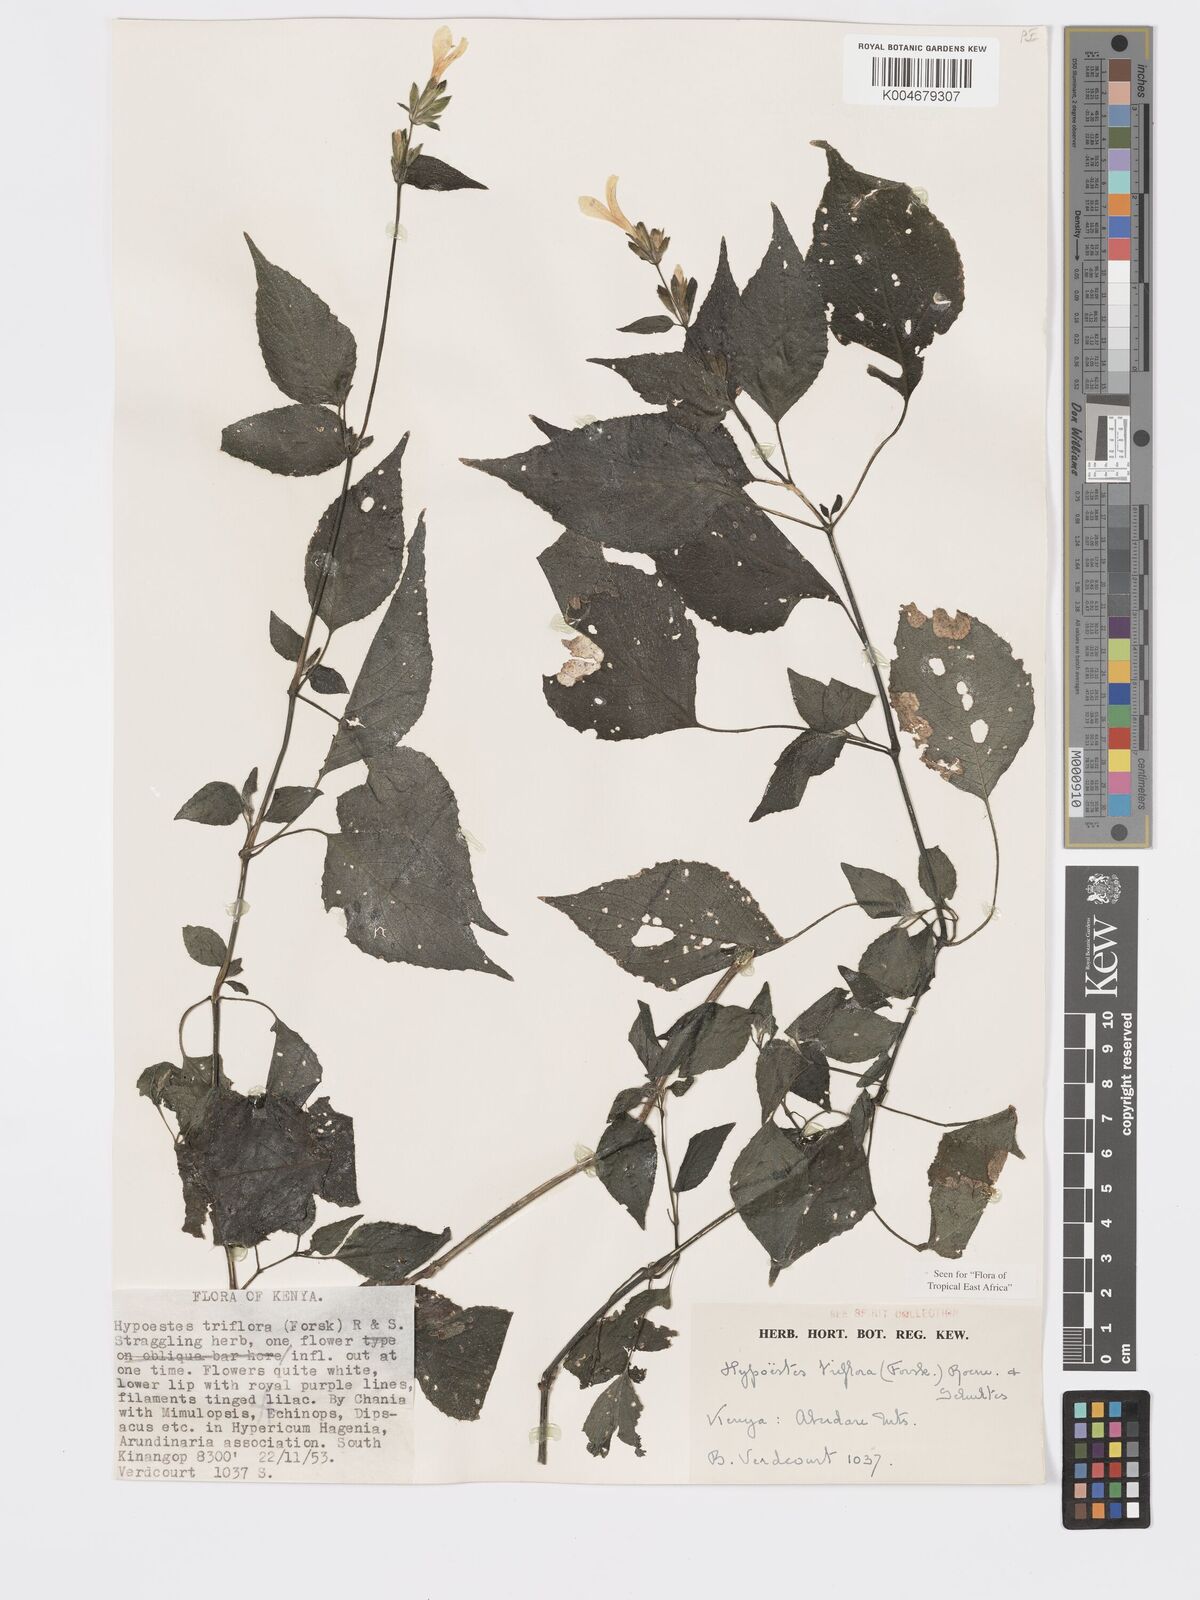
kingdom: Plantae
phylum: Tracheophyta
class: Magnoliopsida
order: Lamiales
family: Acanthaceae
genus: Hypoestes
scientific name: Hypoestes triflora
